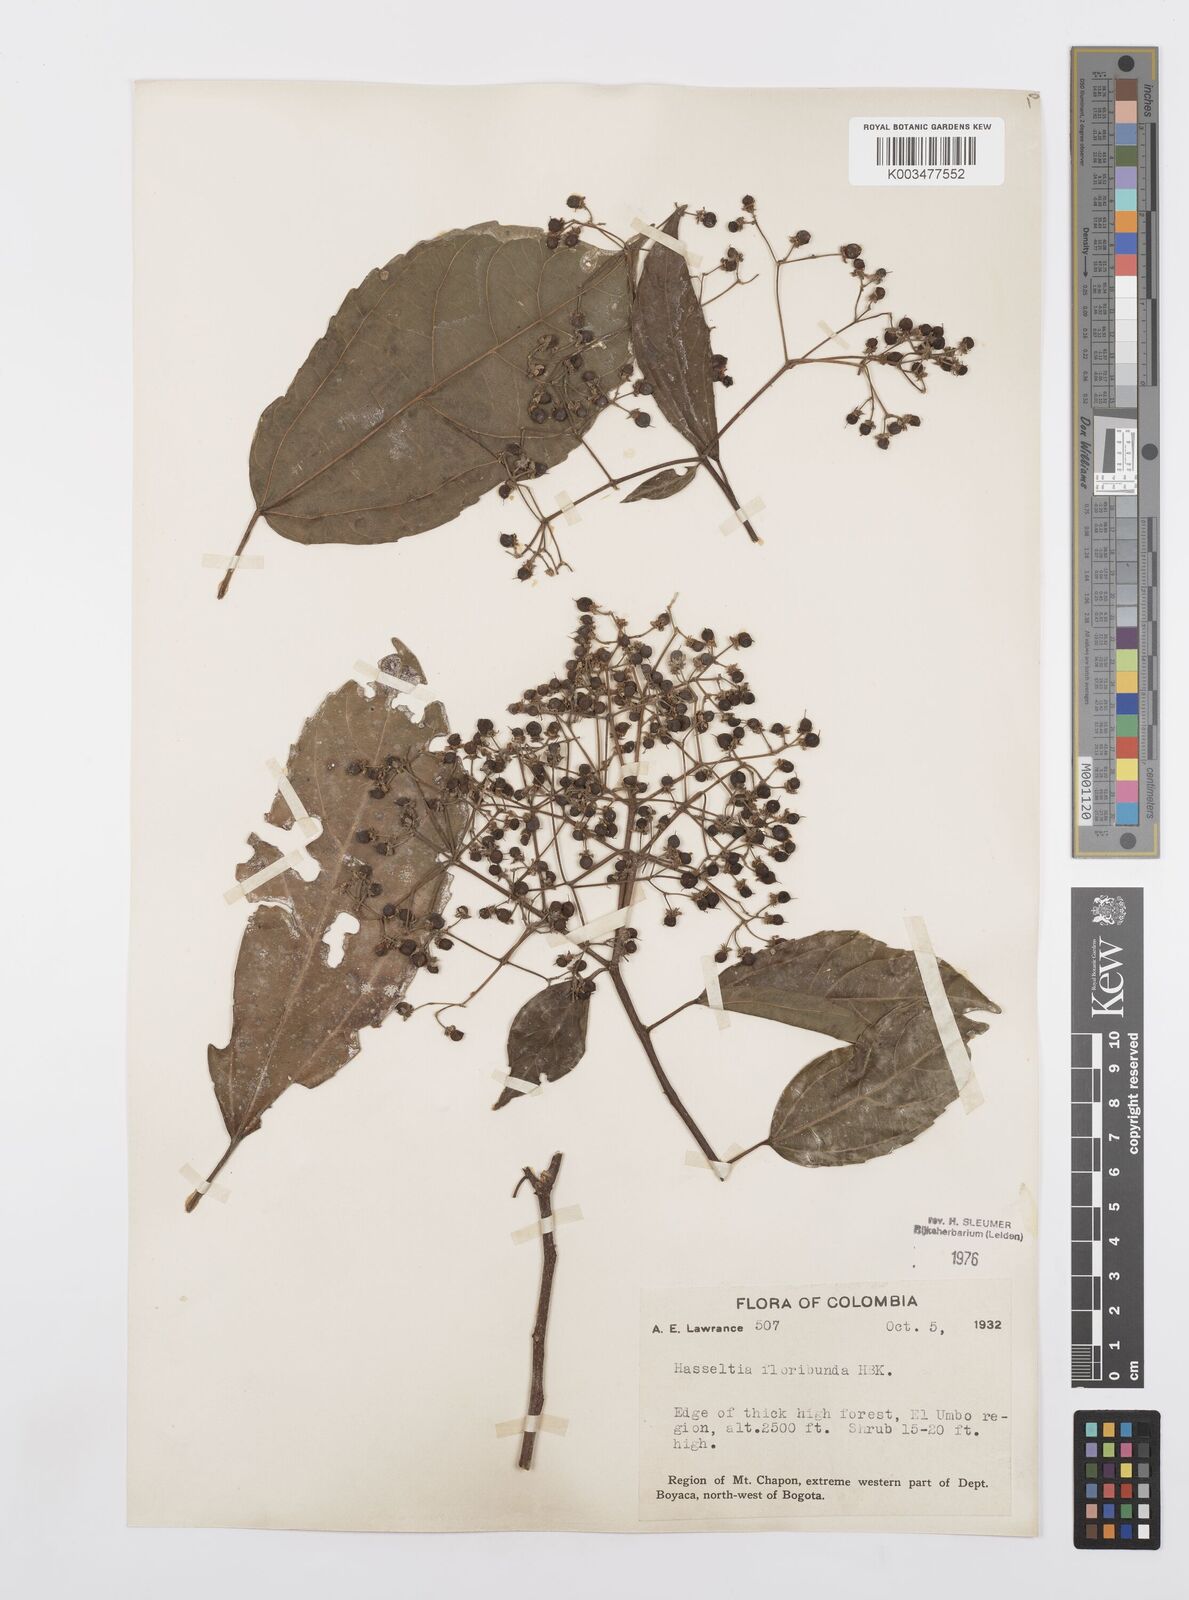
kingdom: Plantae
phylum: Tracheophyta
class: Magnoliopsida
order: Malpighiales
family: Salicaceae
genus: Hasseltia
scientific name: Hasseltia floribunda
